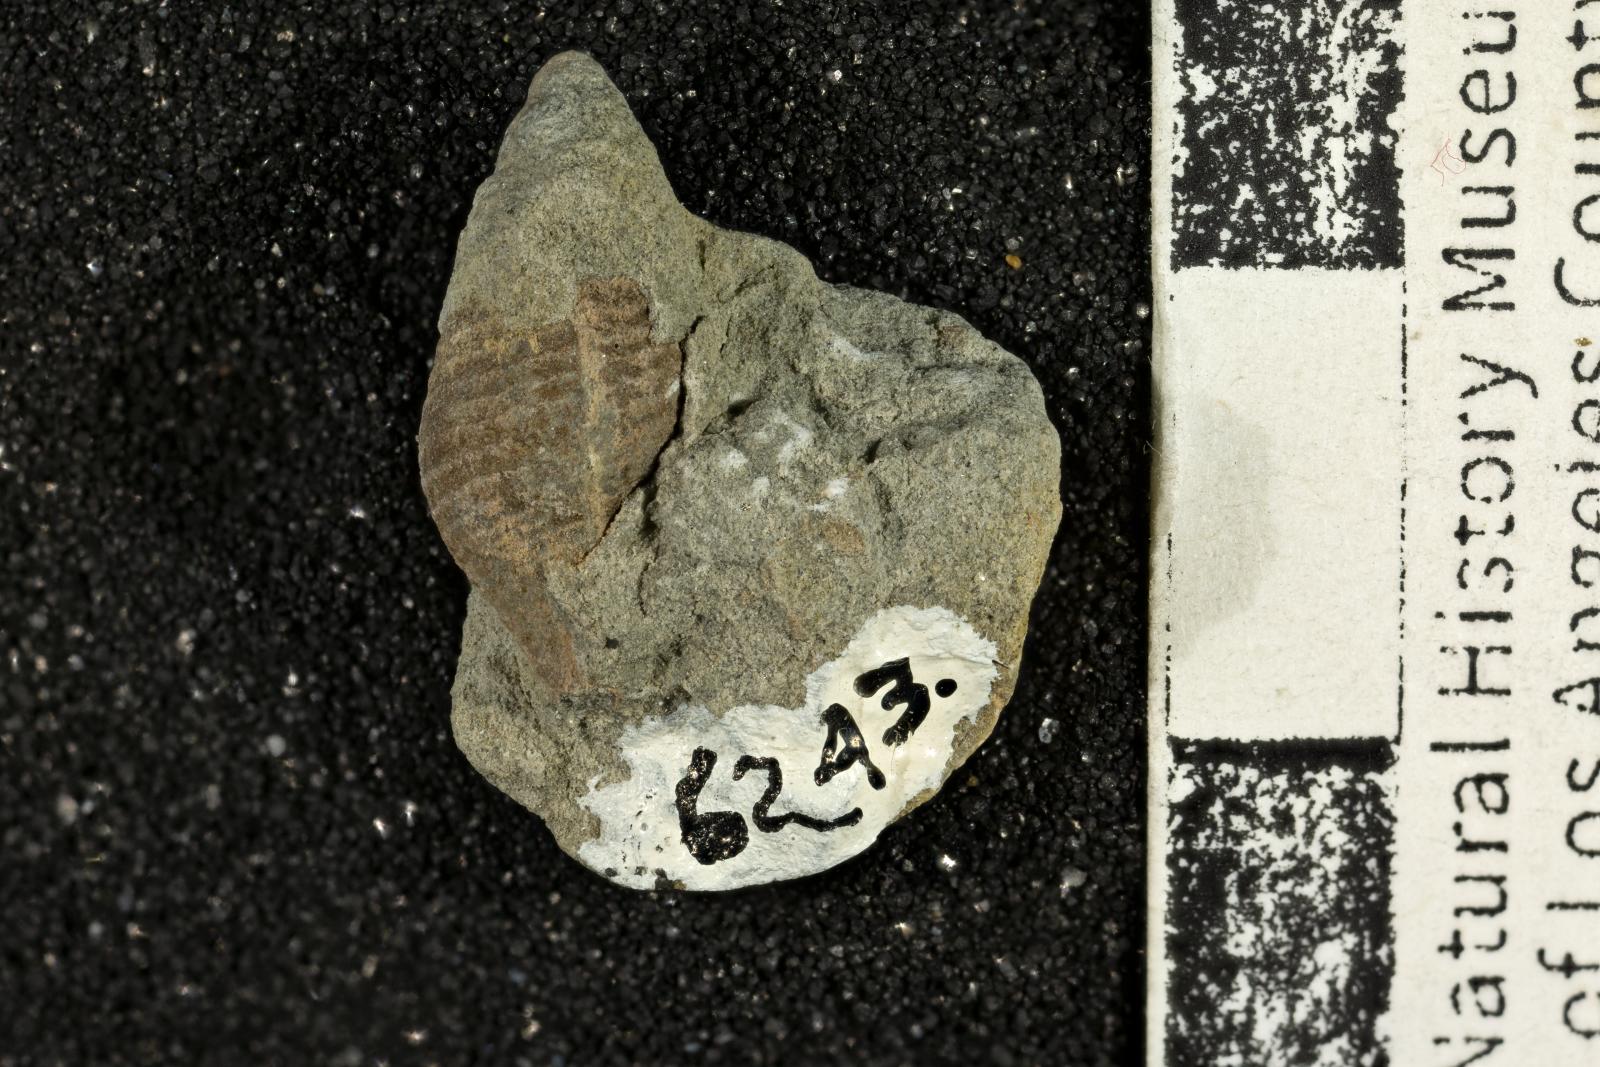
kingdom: Animalia
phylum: Mollusca
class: Gastropoda
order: Neogastropoda
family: Fasciolariidae
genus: Calkota
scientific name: Calkota daileyi
